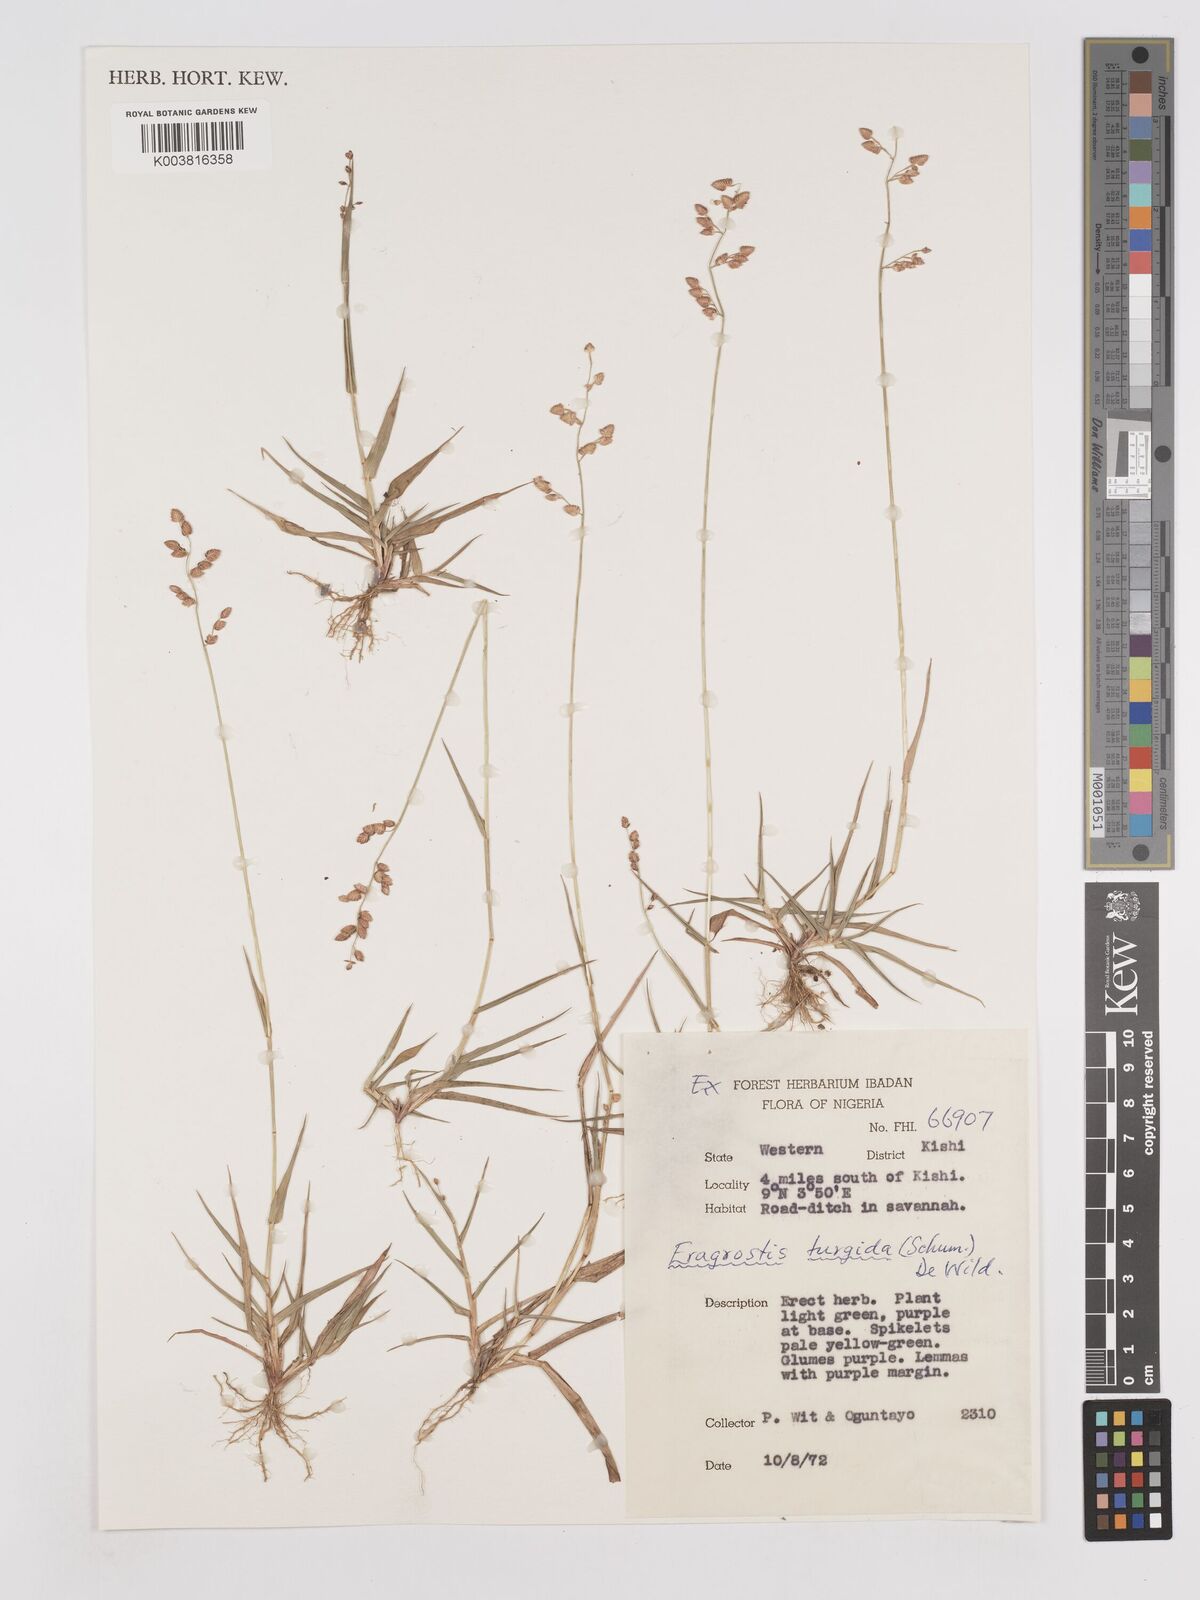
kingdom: Plantae
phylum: Tracheophyta
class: Liliopsida
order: Poales
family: Poaceae
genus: Eragrostis
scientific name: Eragrostis turgida
